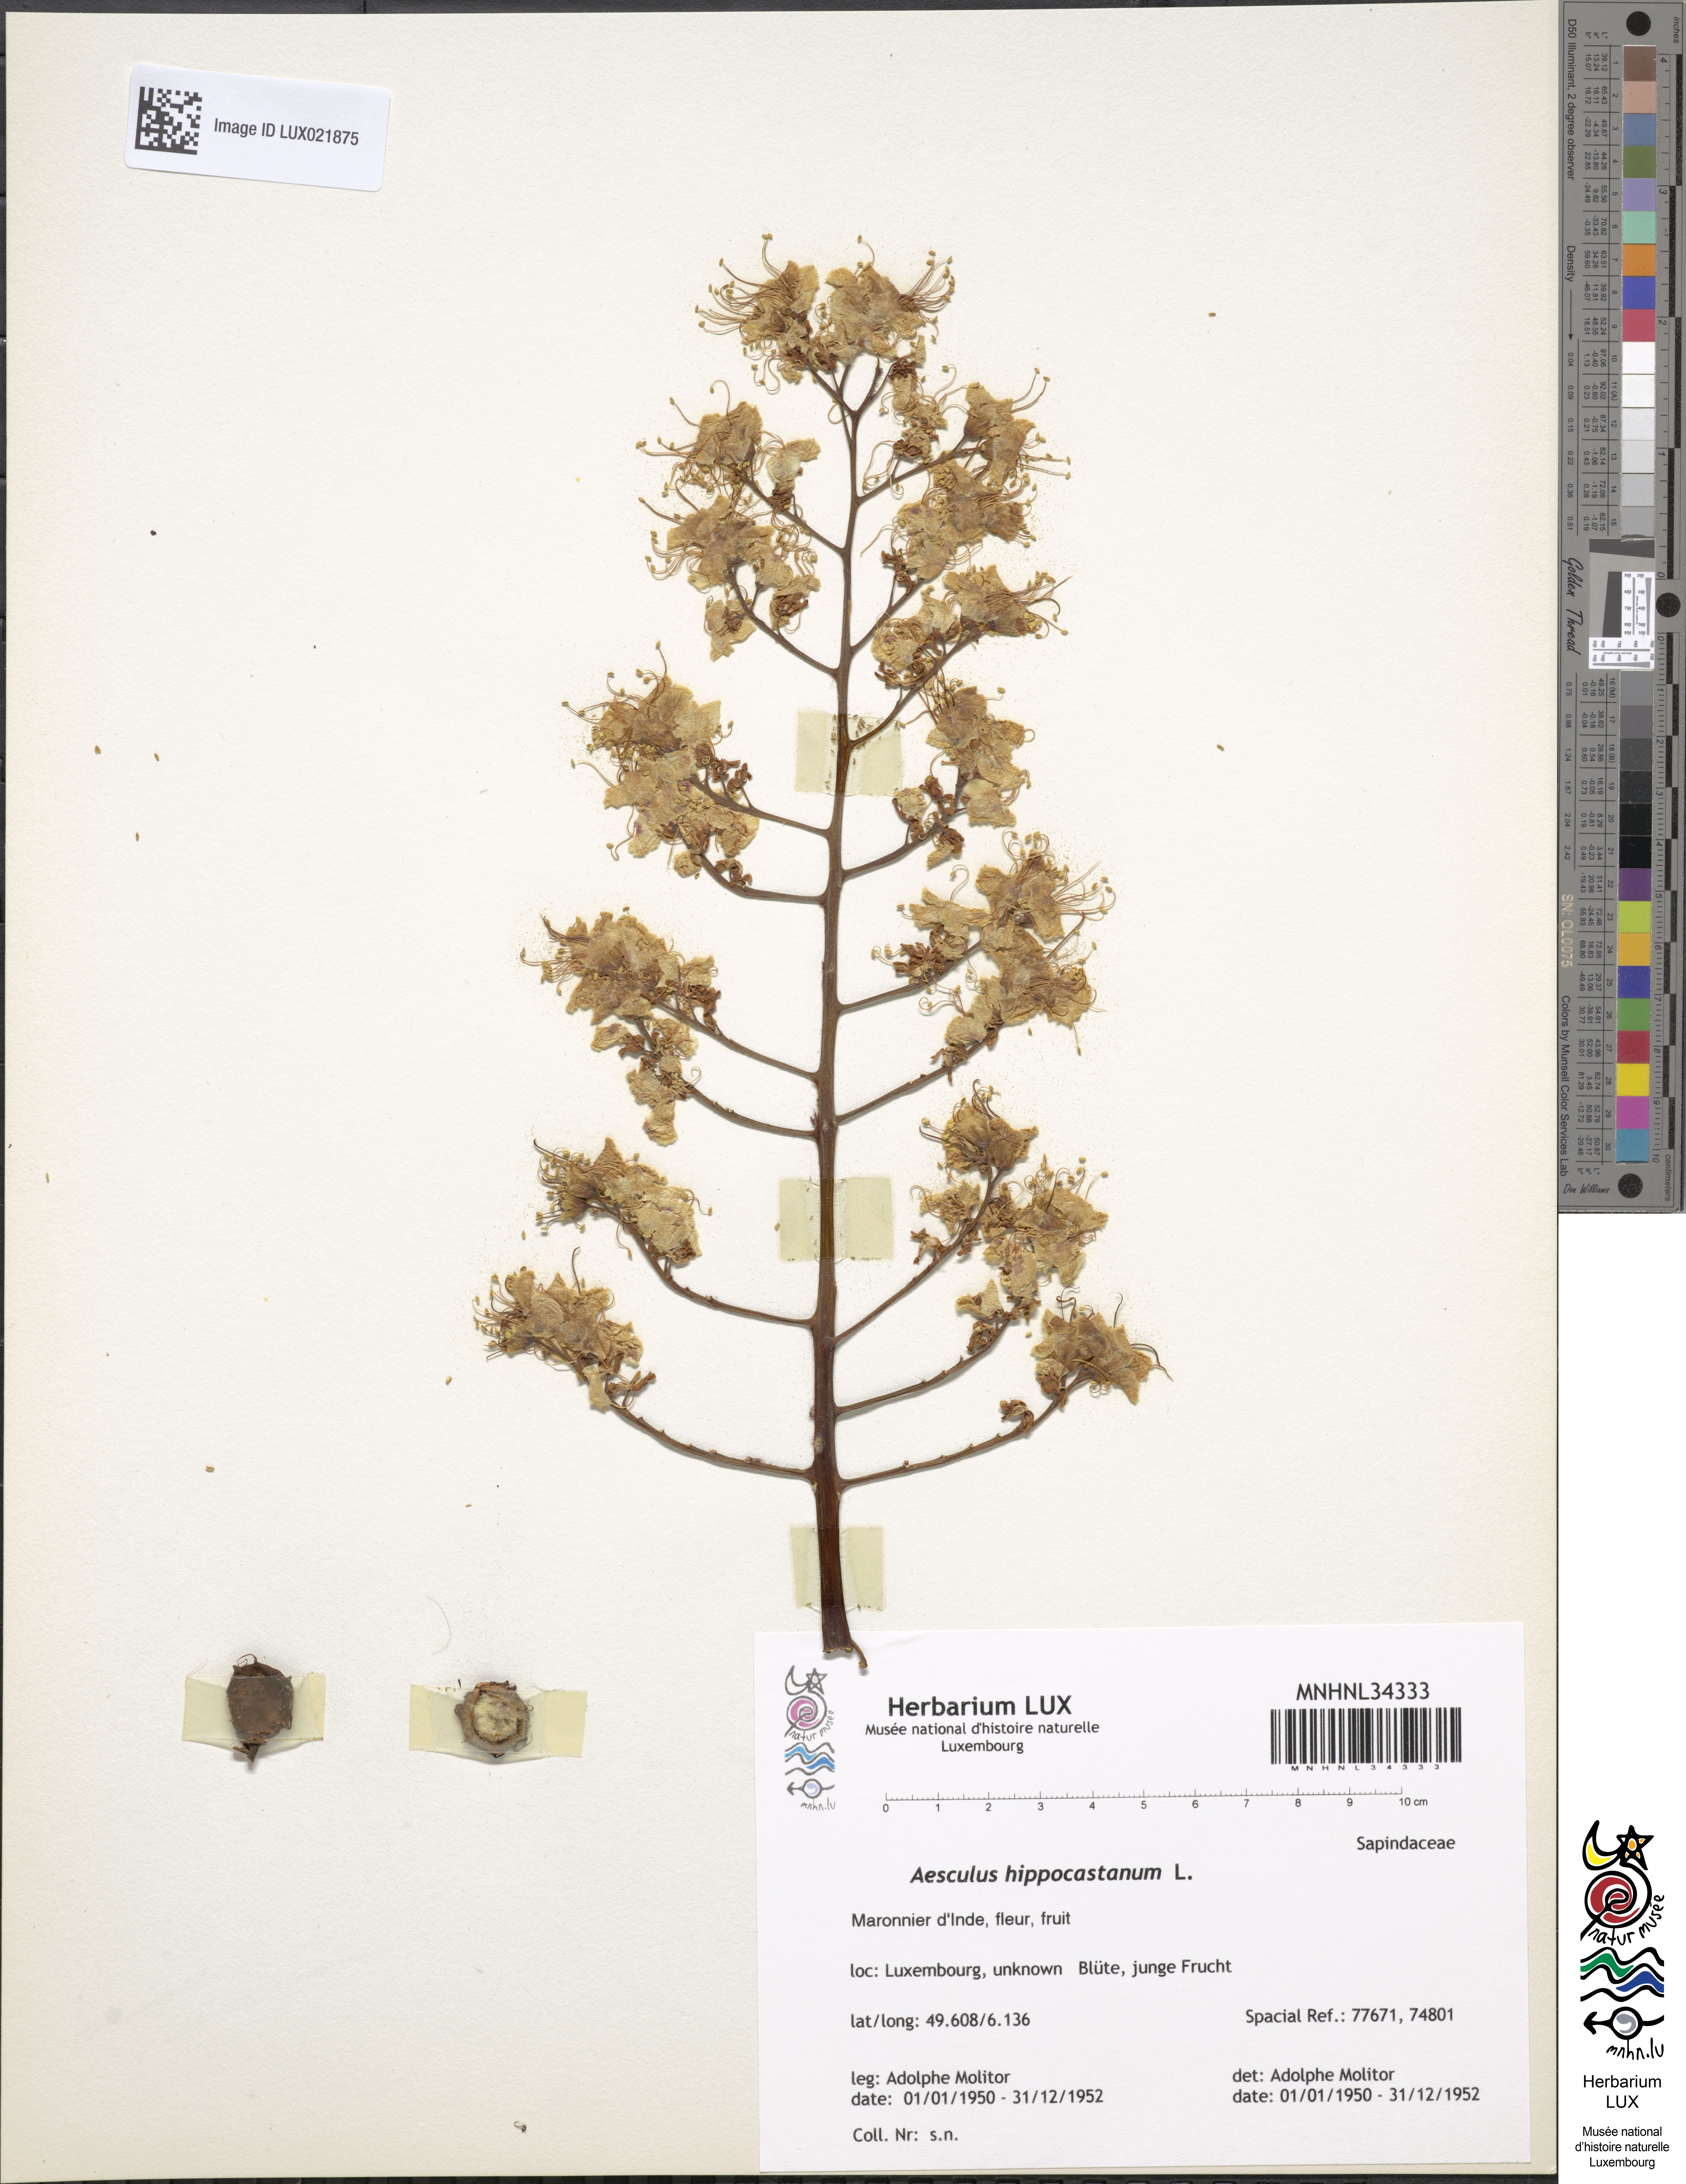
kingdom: Plantae
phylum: Tracheophyta
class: Magnoliopsida
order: Sapindales
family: Sapindaceae
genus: Aesculus
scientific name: Aesculus hippocastanum
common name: Horse-chestnut
